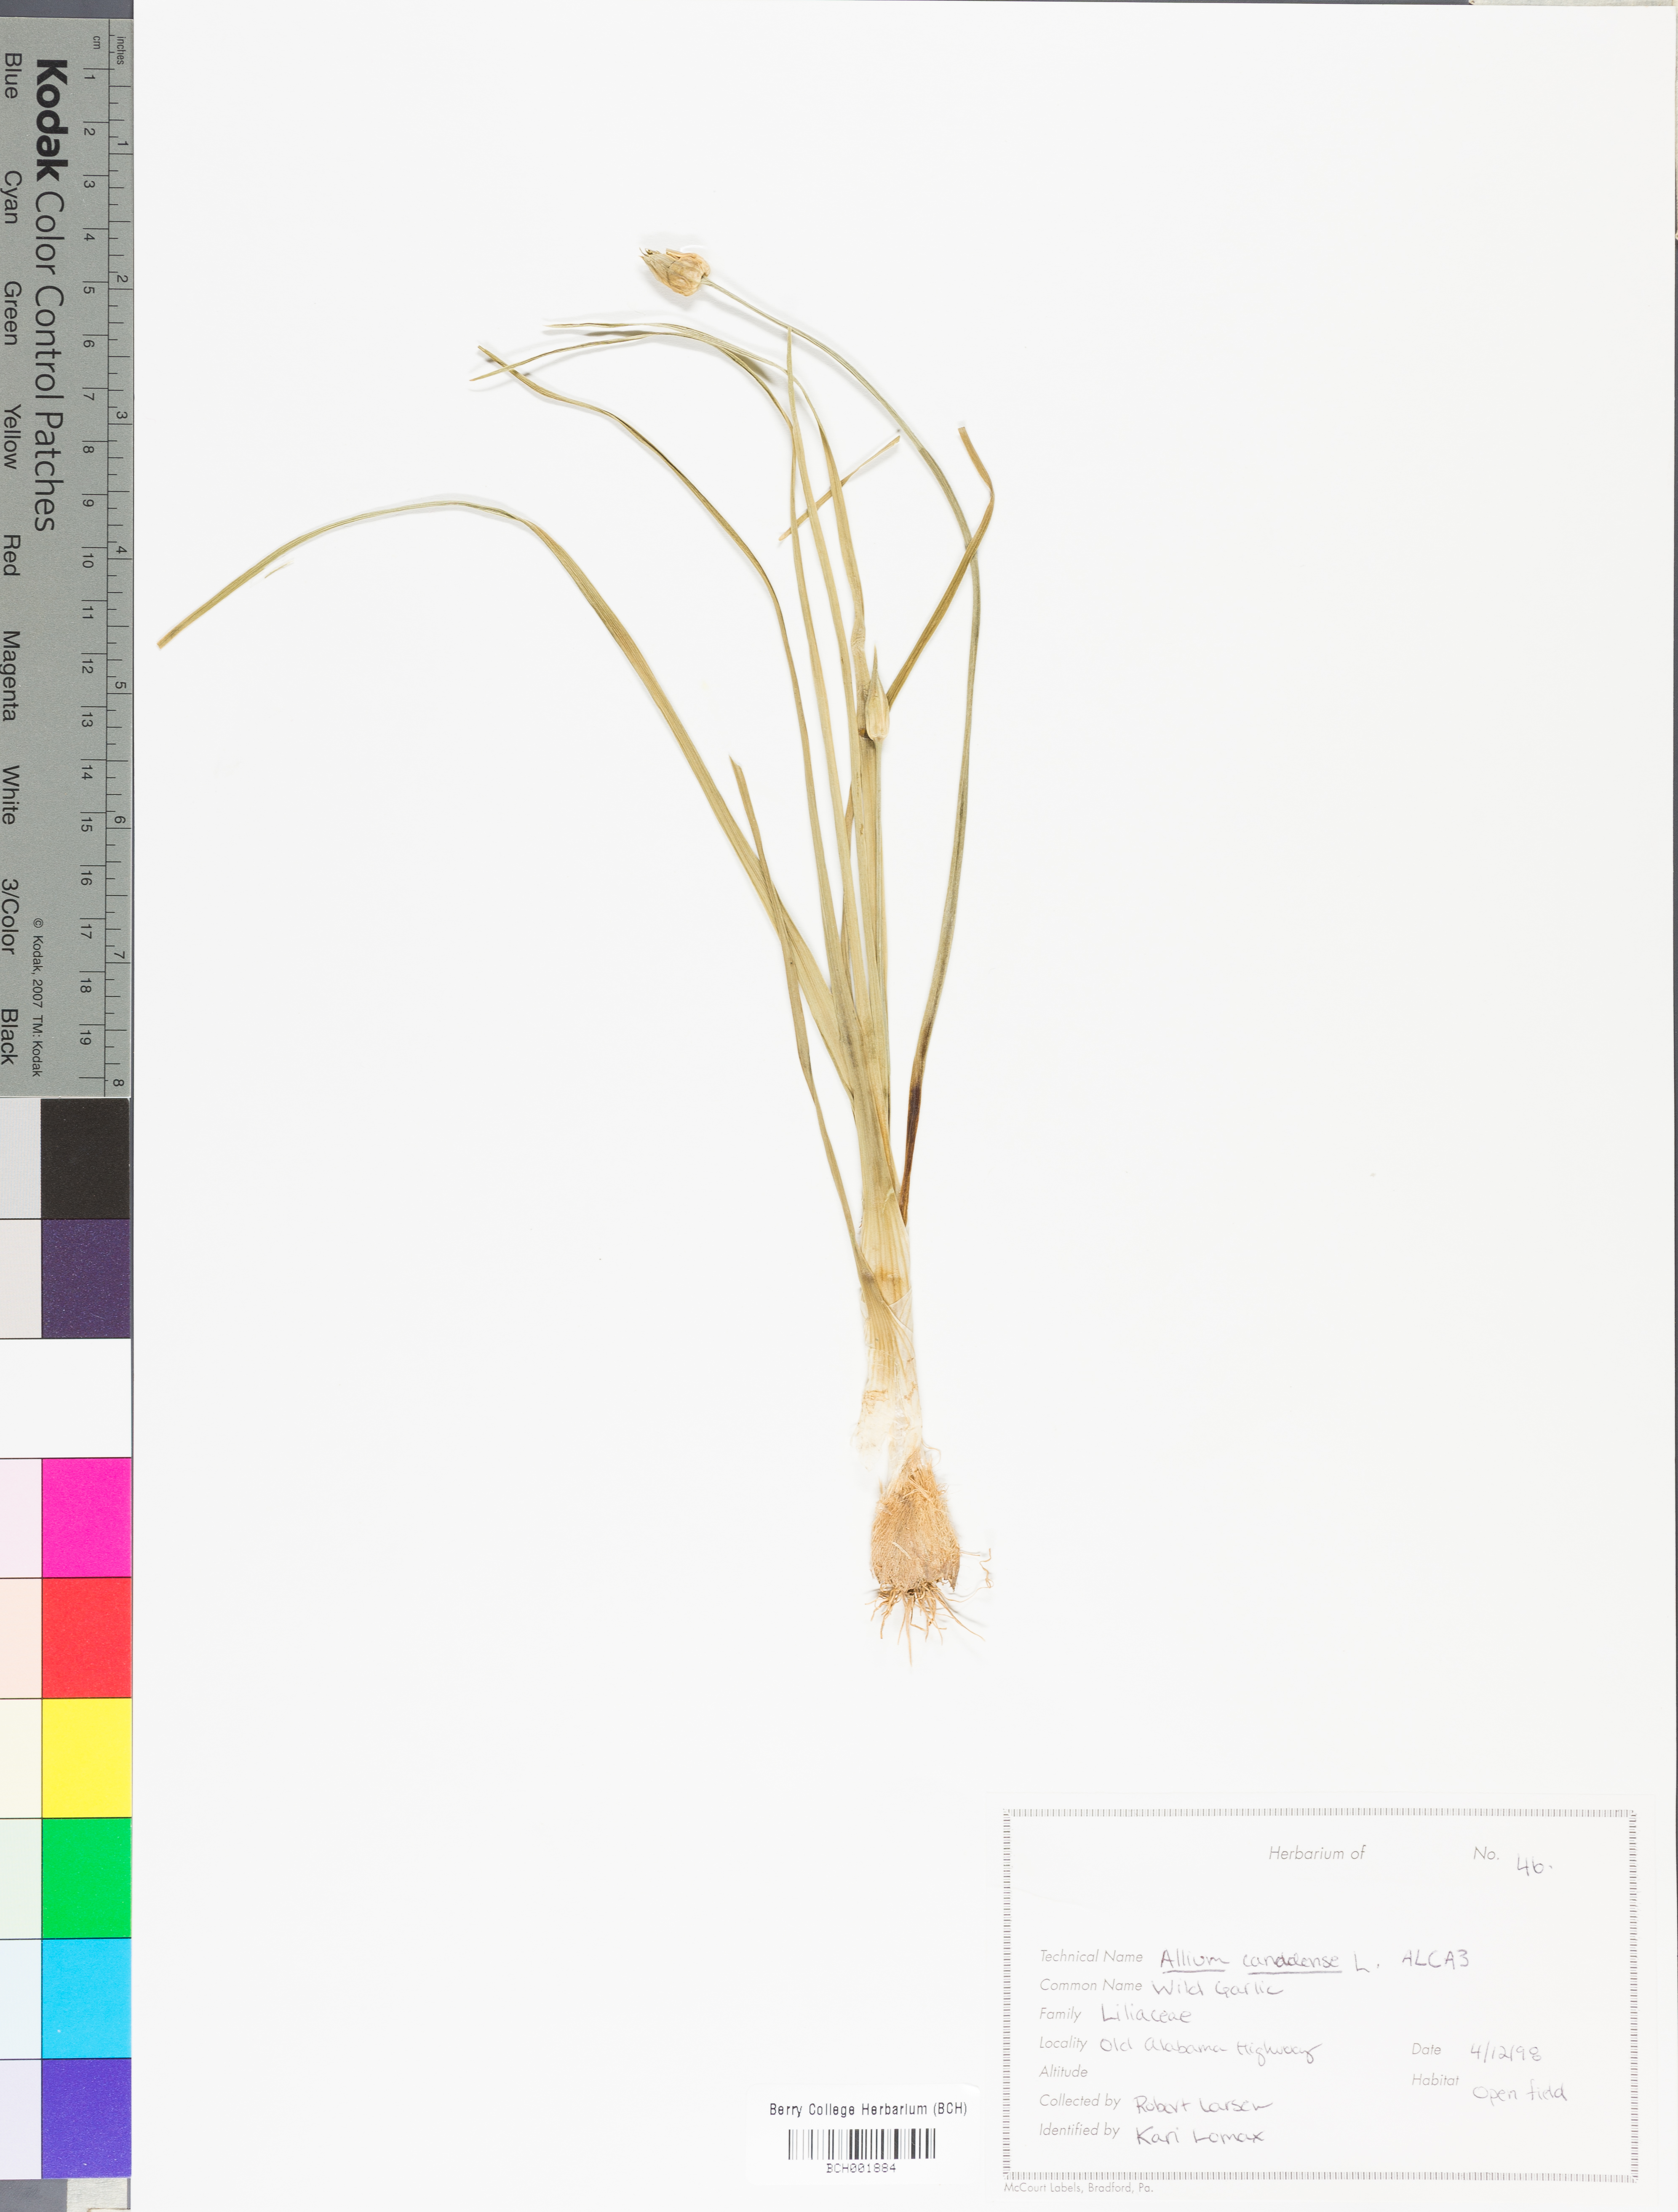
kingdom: Plantae
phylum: Tracheophyta
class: Liliopsida
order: Asparagales
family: Amaryllidaceae
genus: Allium
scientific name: Allium canadense
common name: Meadow garlic
